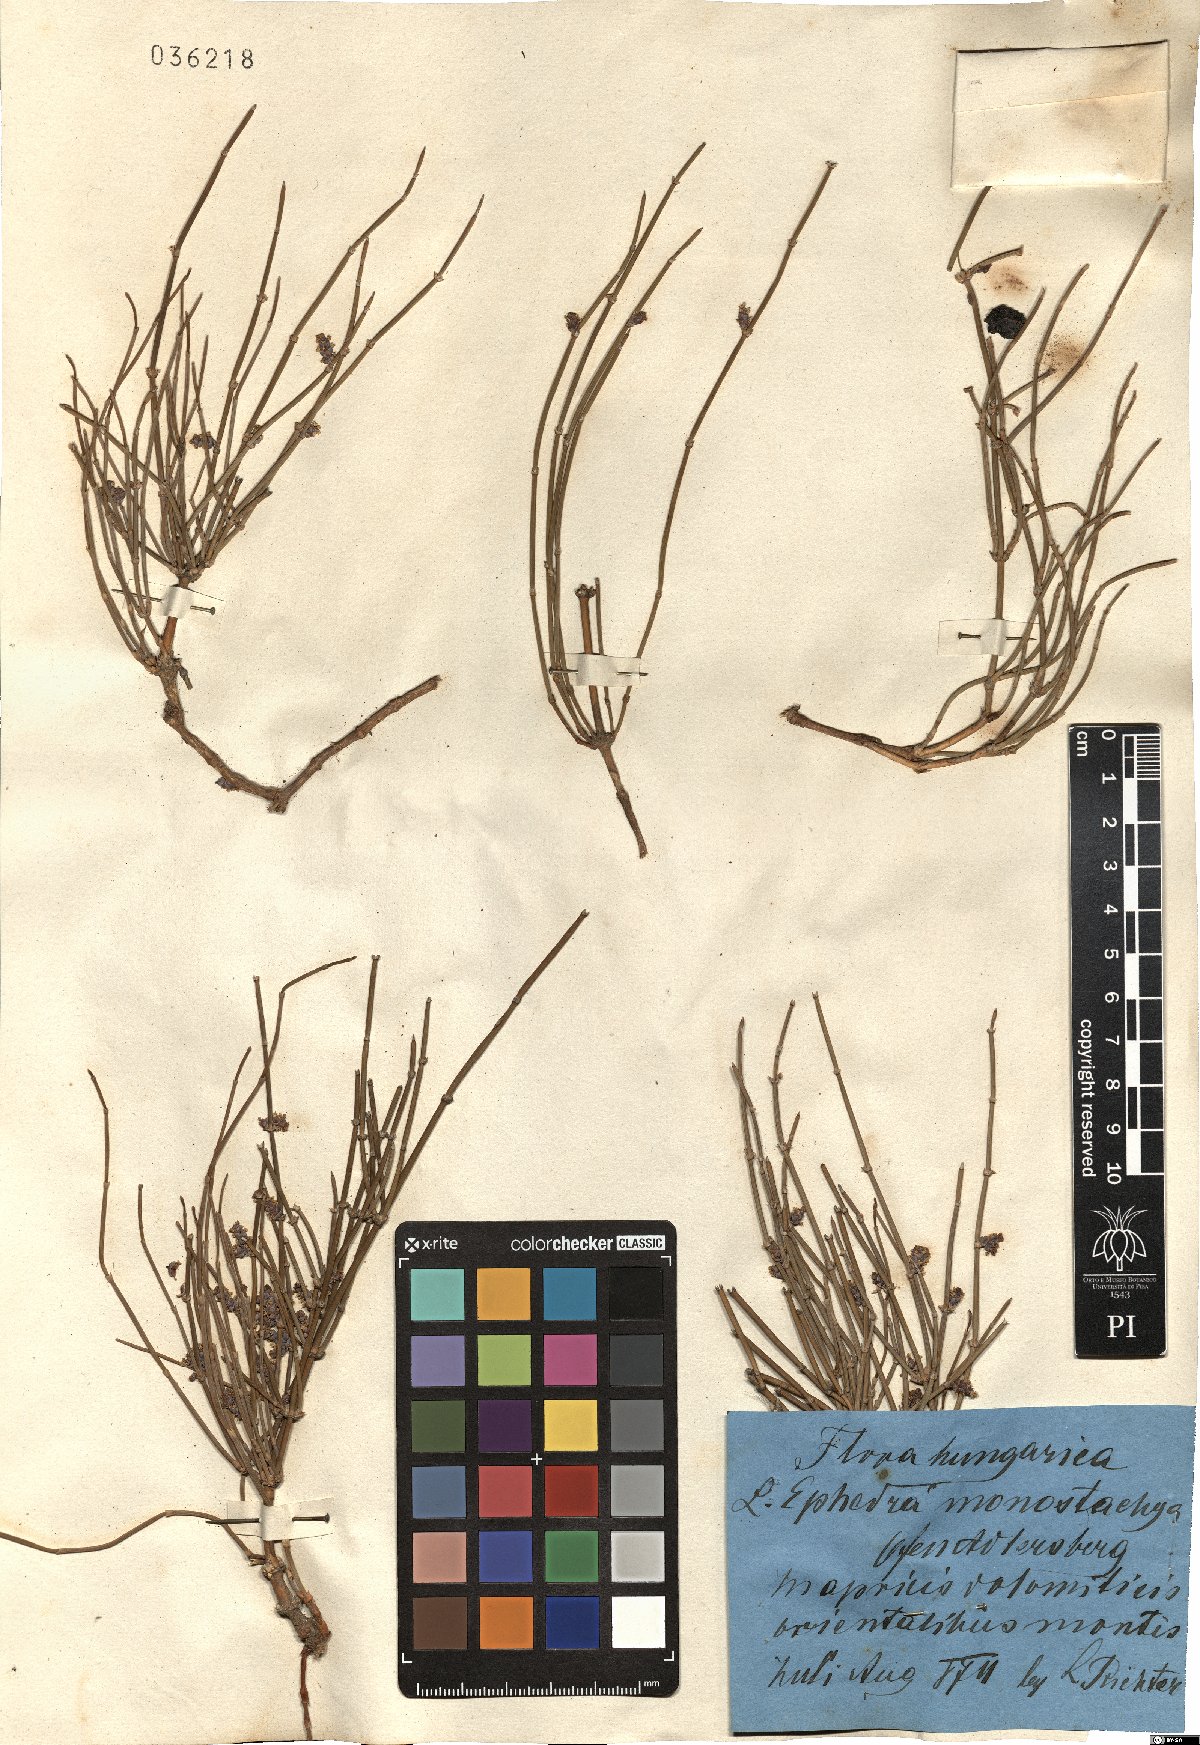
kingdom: Plantae
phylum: Tracheophyta
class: Gnetopsida
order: Ephedrales
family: Ephedraceae
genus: Ephedra
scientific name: Ephedra distachya
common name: Sea grape
